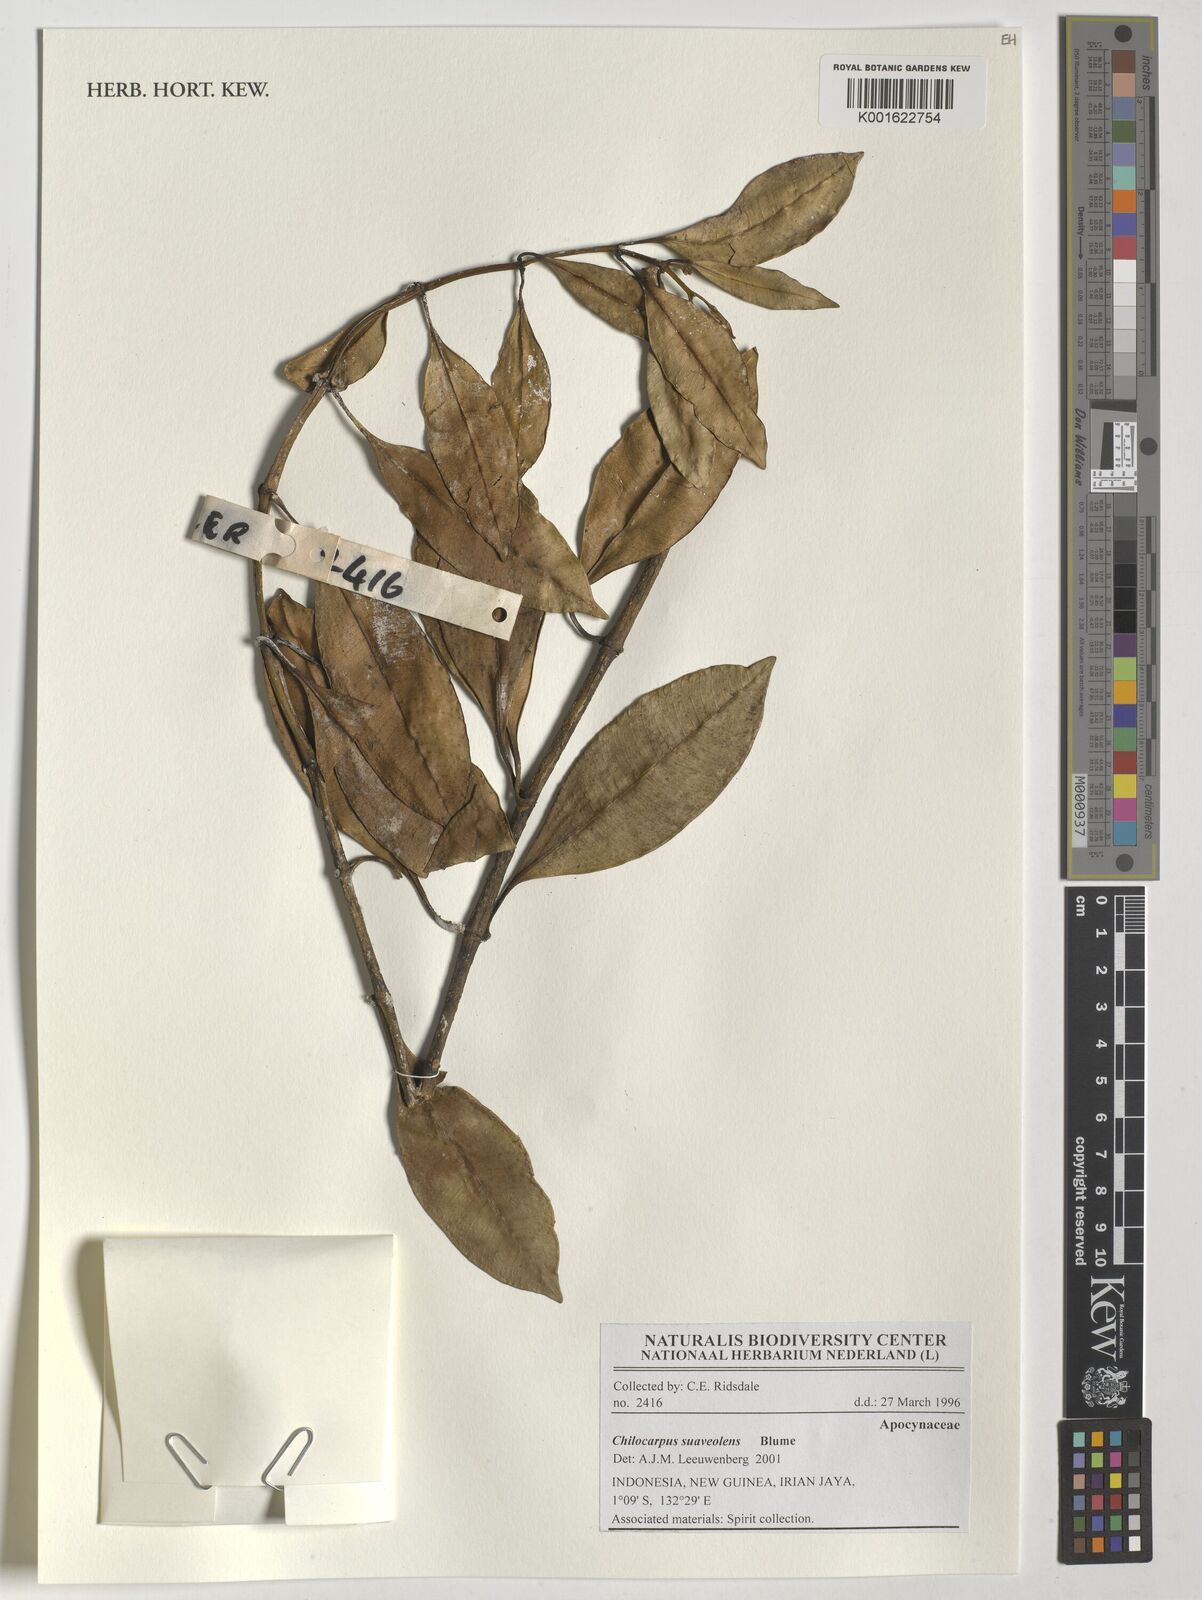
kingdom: Plantae
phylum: Tracheophyta
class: Magnoliopsida
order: Gentianales
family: Apocynaceae
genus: Chilocarpus
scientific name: Chilocarpus suaveolens
